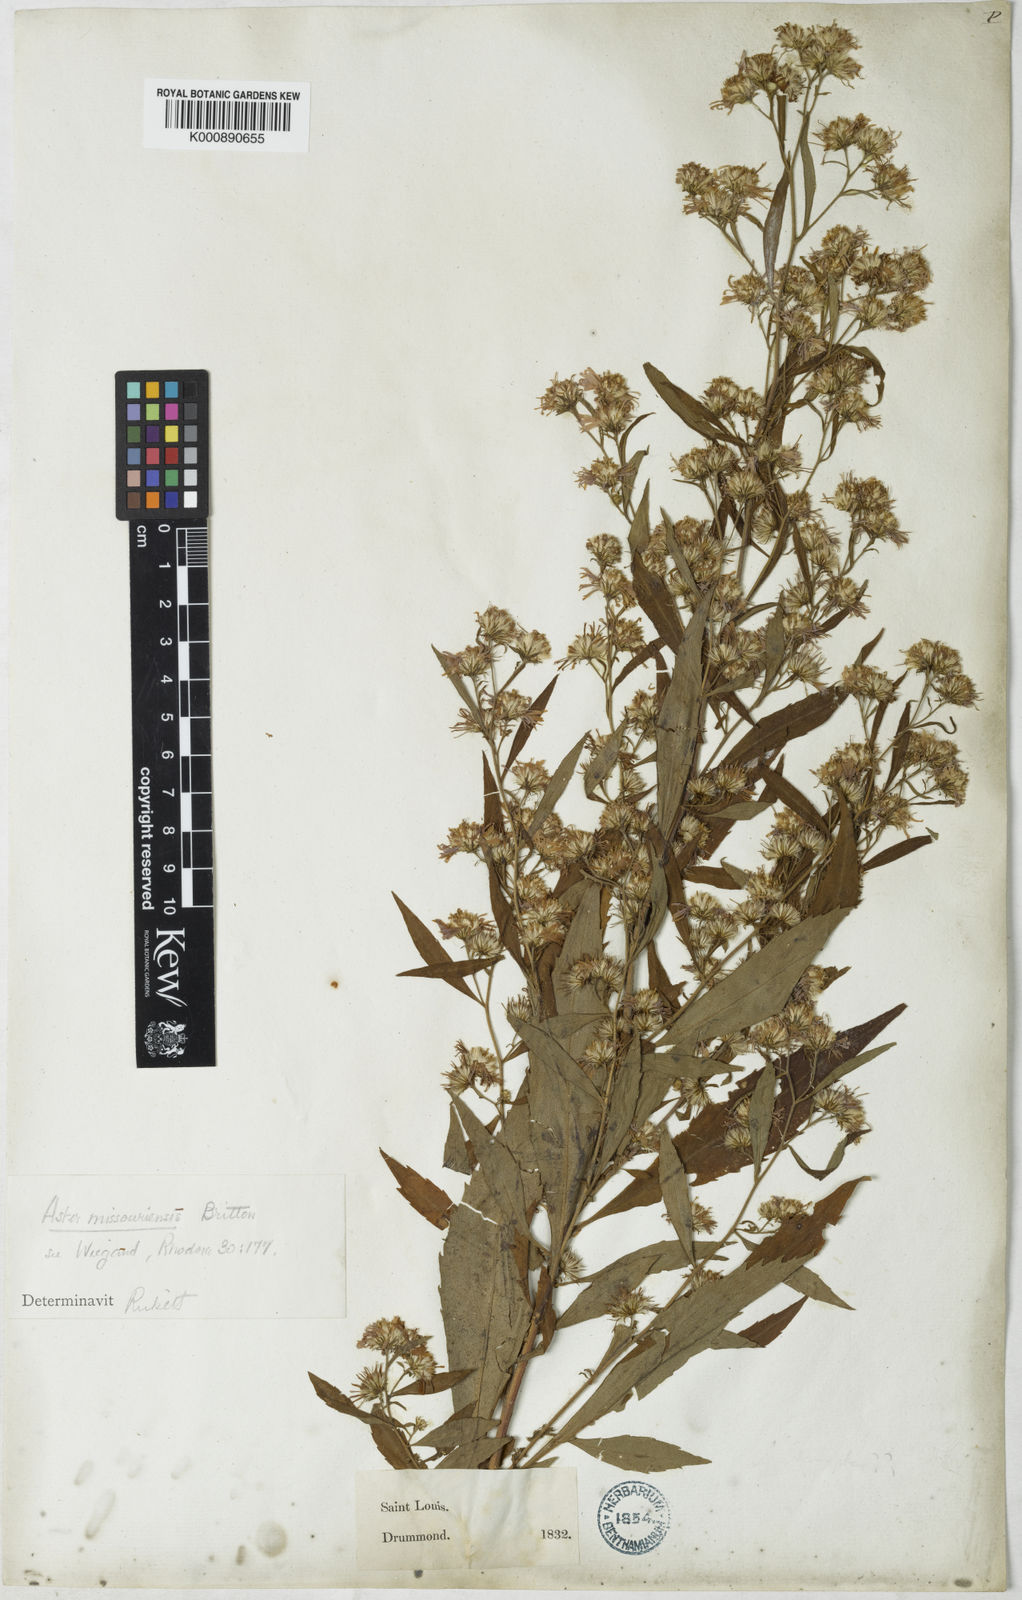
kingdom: Plantae
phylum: Tracheophyta
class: Magnoliopsida
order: Asterales
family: Asteraceae
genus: Aster
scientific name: Aster
